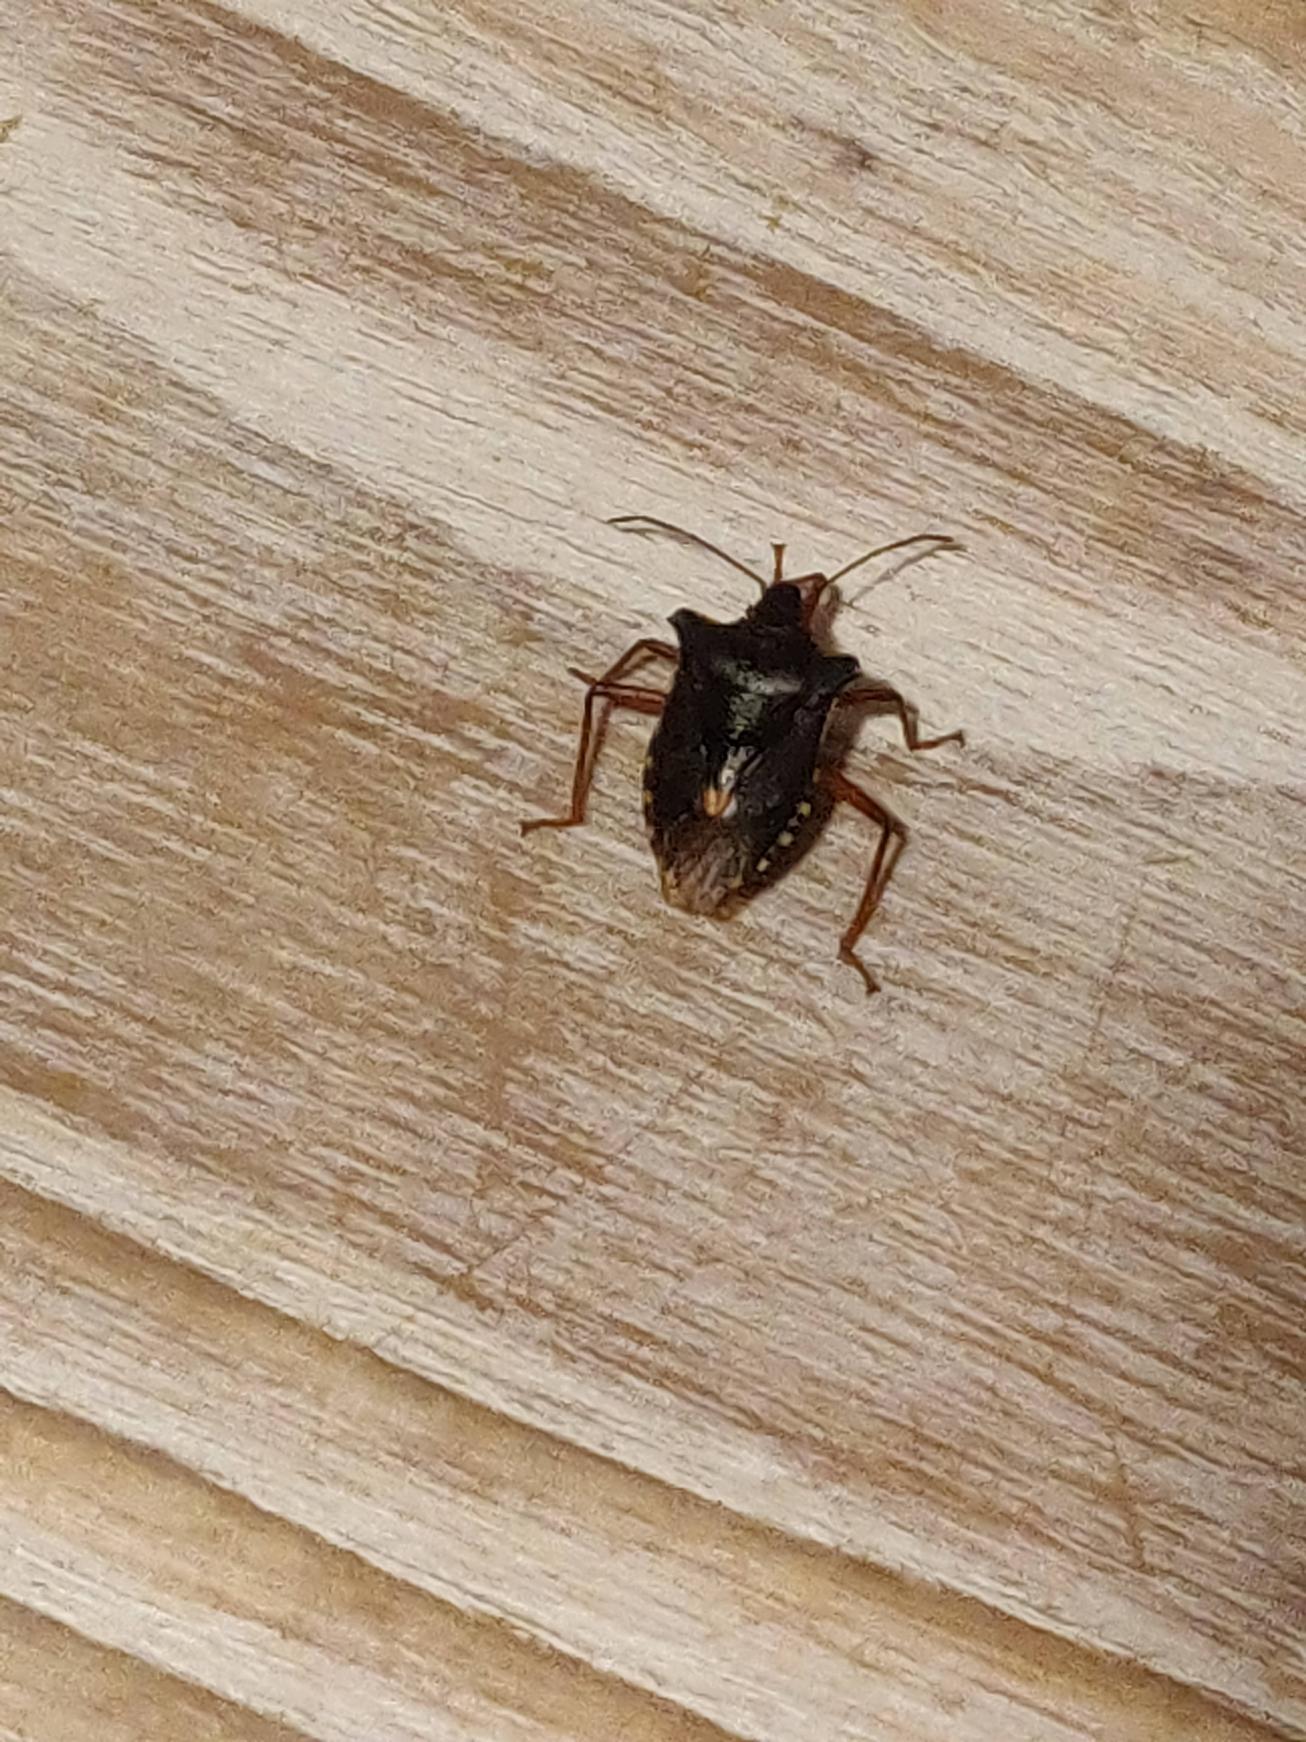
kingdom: Animalia
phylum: Arthropoda
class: Insecta
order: Hemiptera
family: Pentatomidae
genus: Pentatoma
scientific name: Pentatoma rufipes
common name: Rødbenet bredtæge
